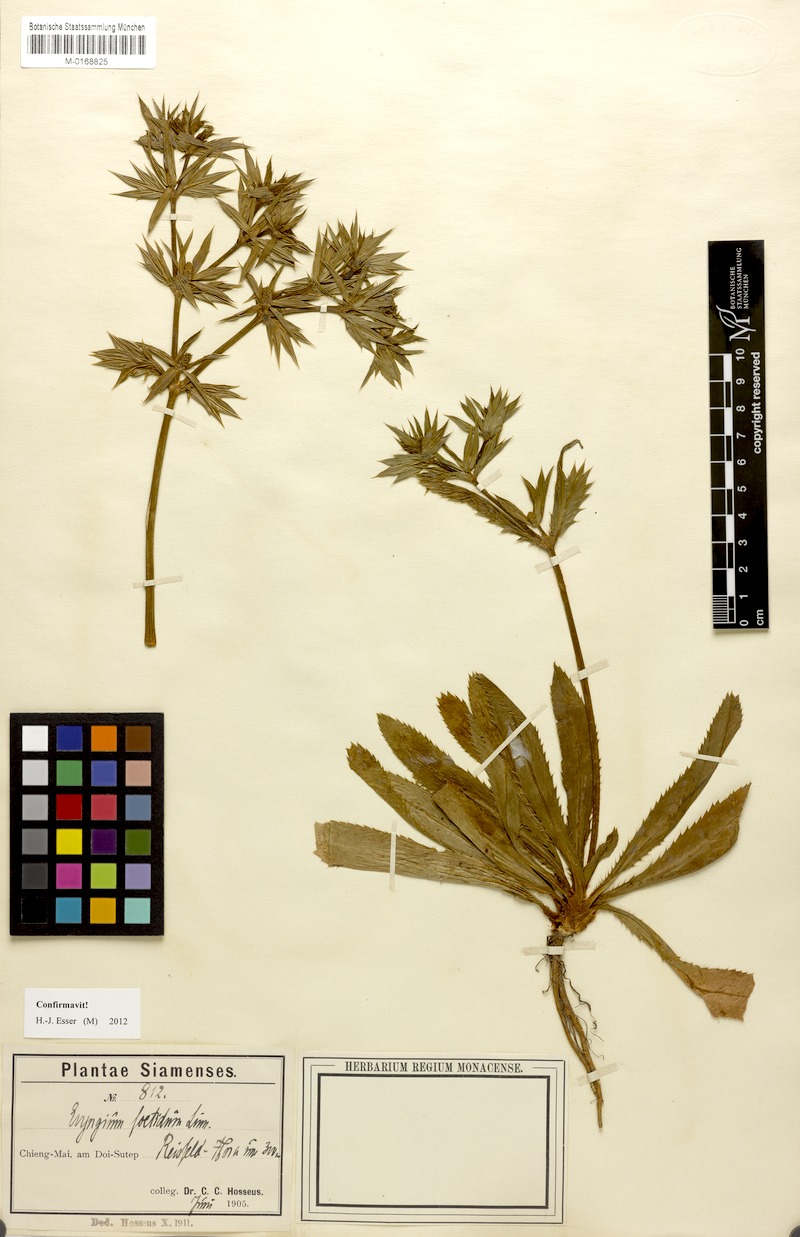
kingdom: Plantae
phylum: Tracheophyta
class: Magnoliopsida
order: Apiales
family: Apiaceae
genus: Eryngium
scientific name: Eryngium foetidum
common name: Fitweed
